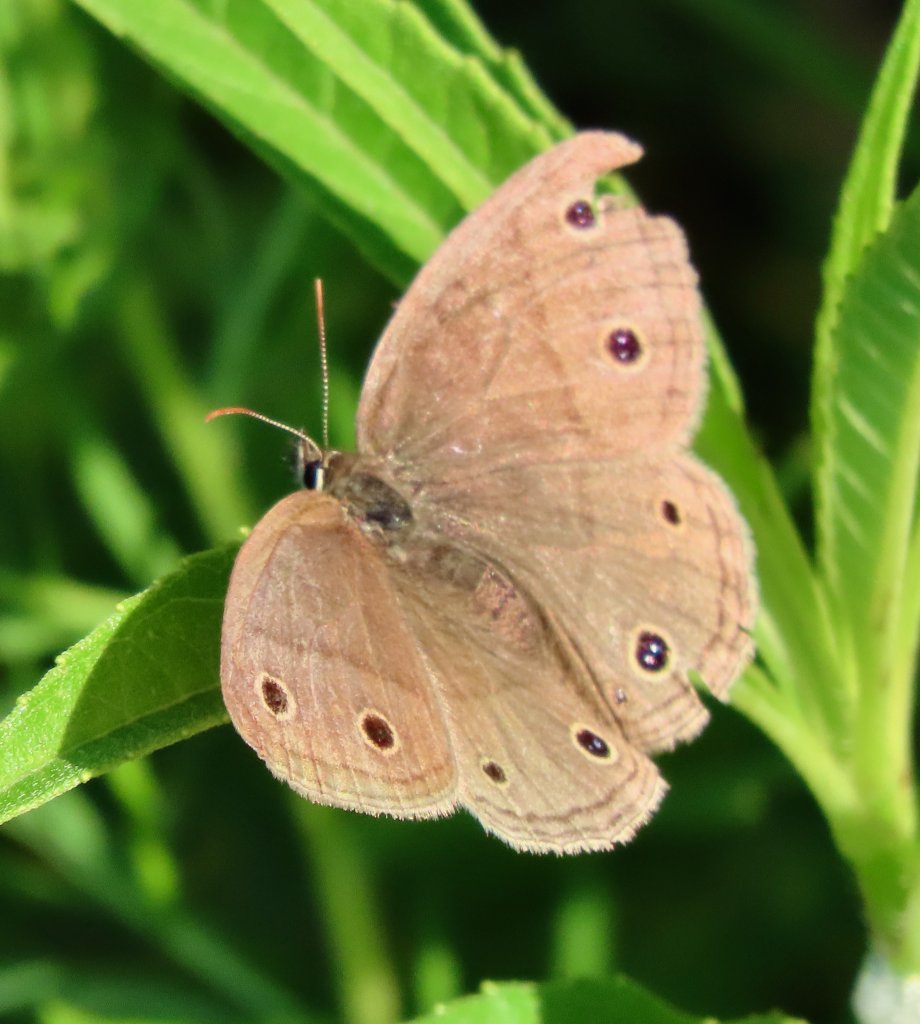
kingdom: Animalia
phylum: Arthropoda
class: Insecta
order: Lepidoptera
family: Nymphalidae
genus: Euptychia
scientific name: Euptychia cymela
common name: Little Wood Satyr
